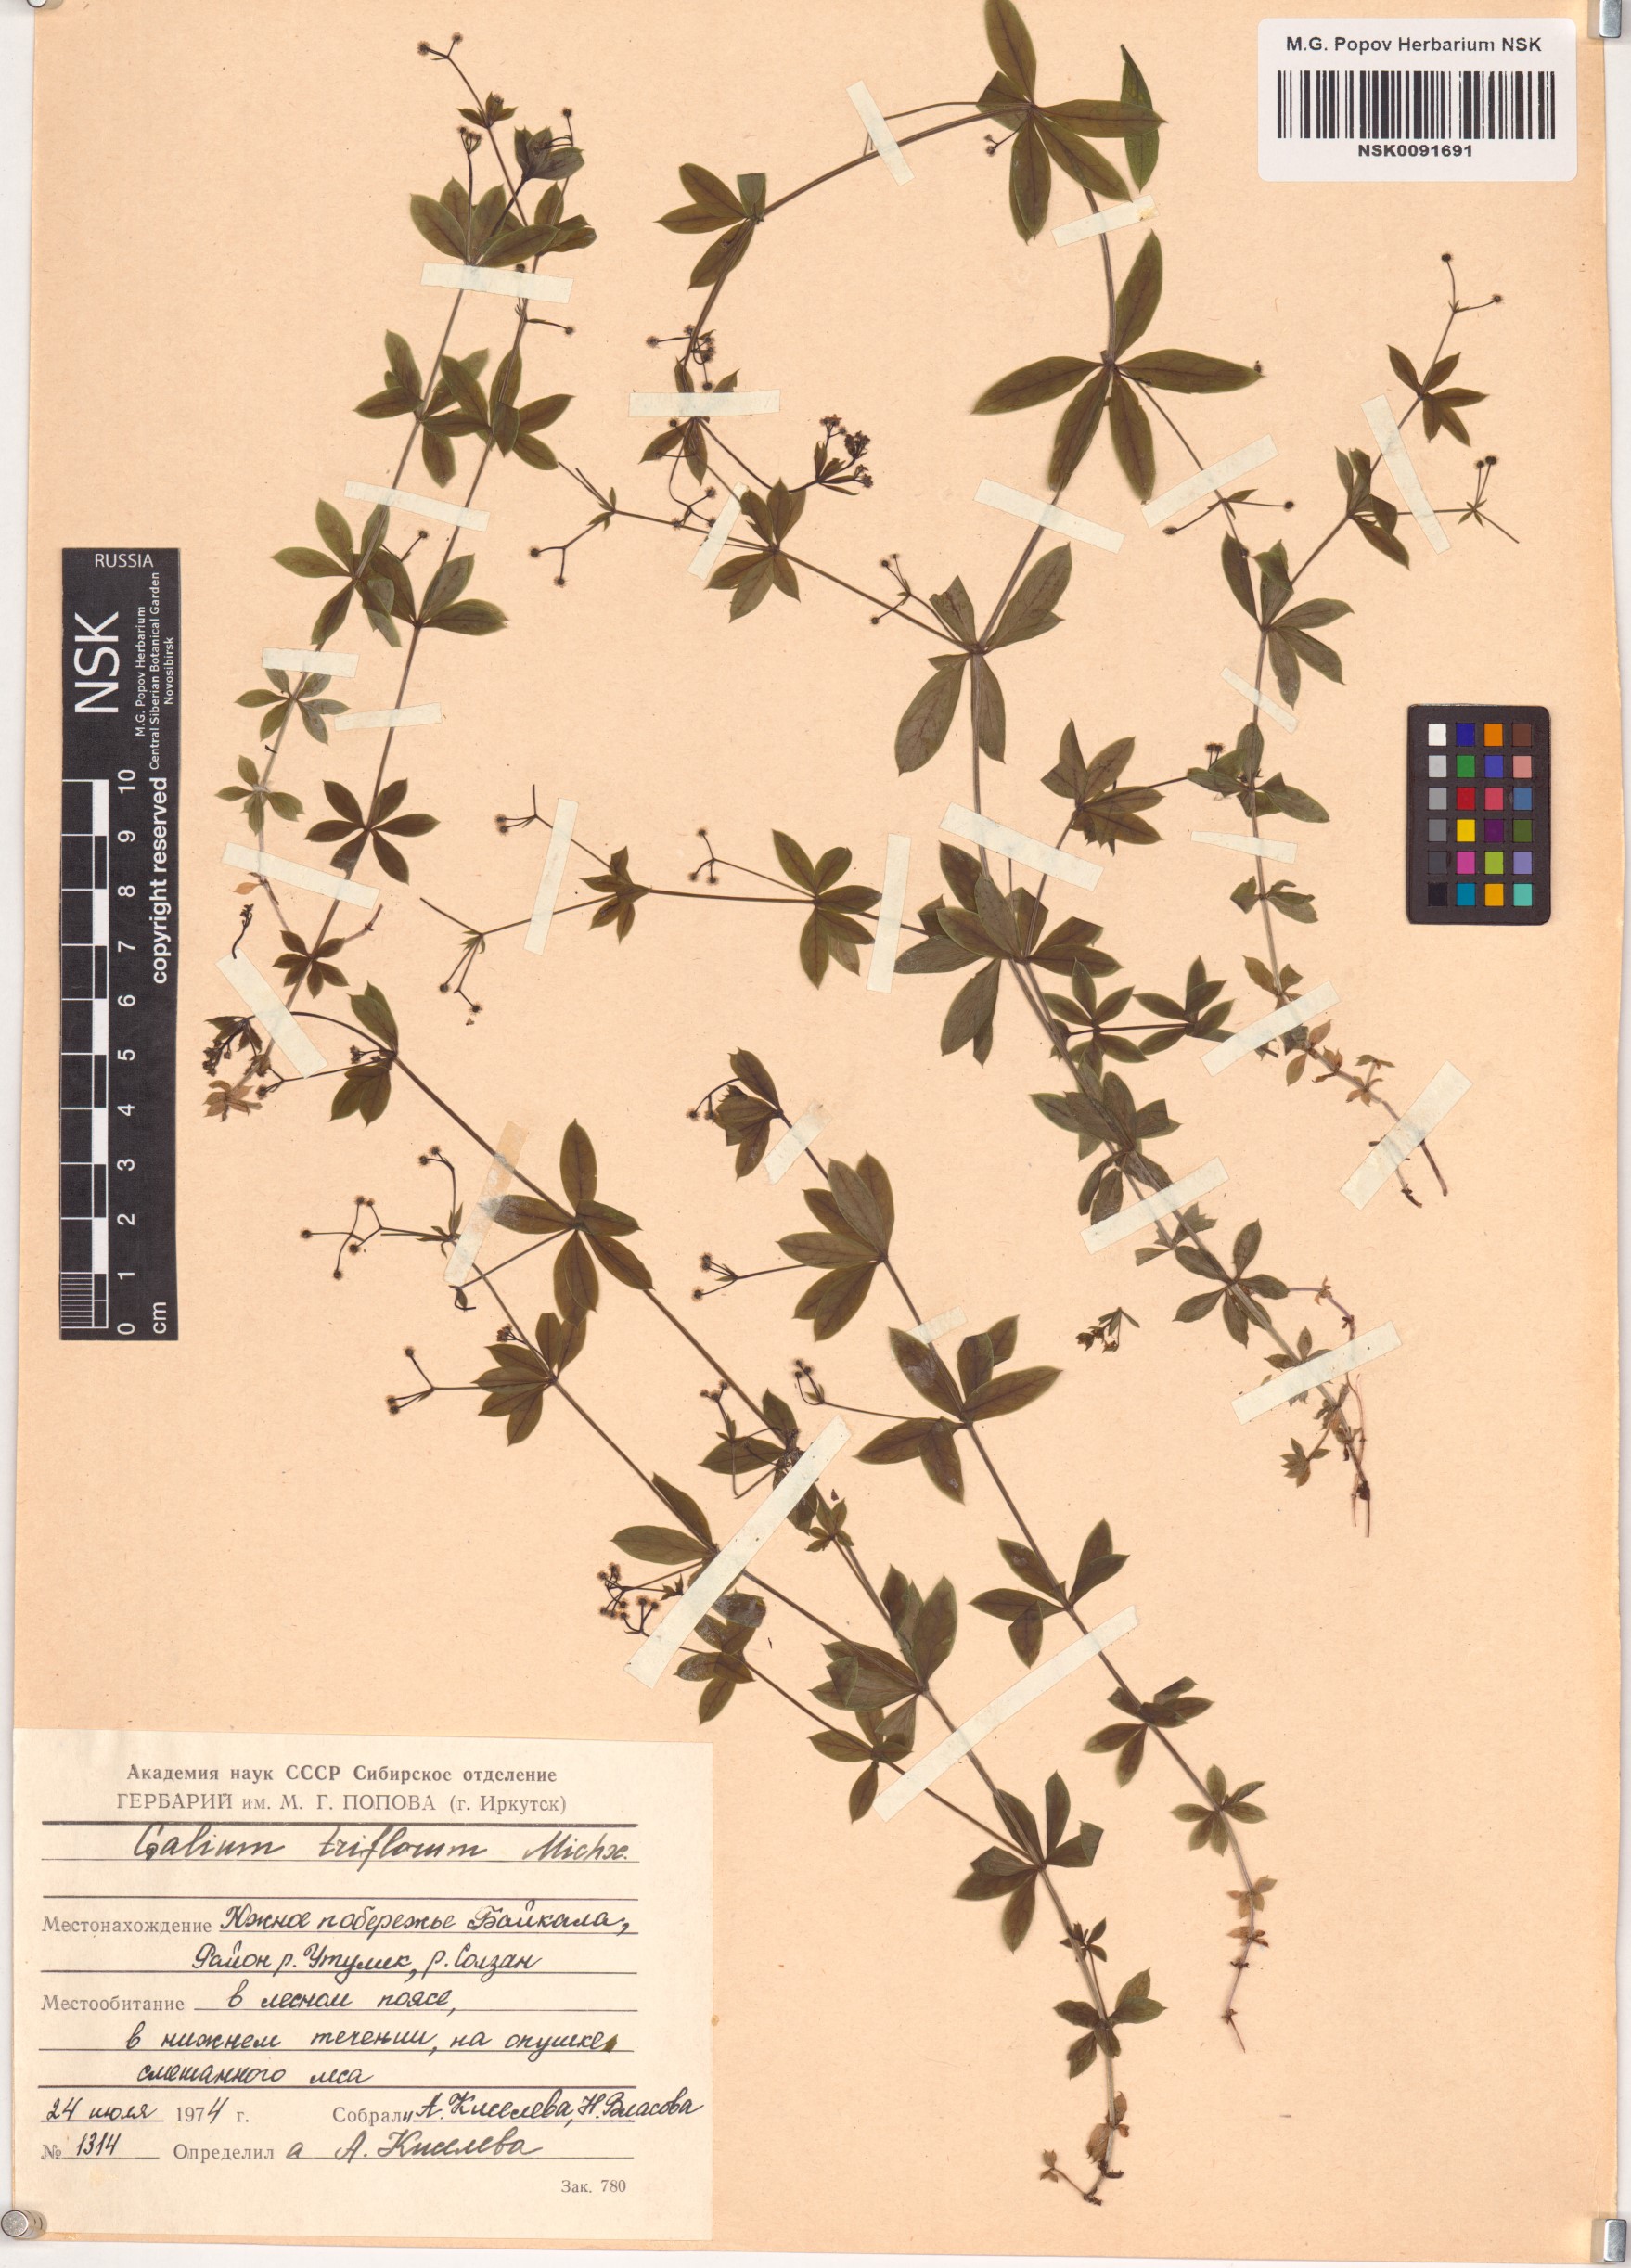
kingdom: Plantae
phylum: Tracheophyta
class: Magnoliopsida
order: Gentianales
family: Rubiaceae
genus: Galium
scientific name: Galium triflorum
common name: Fragrant bedstraw
